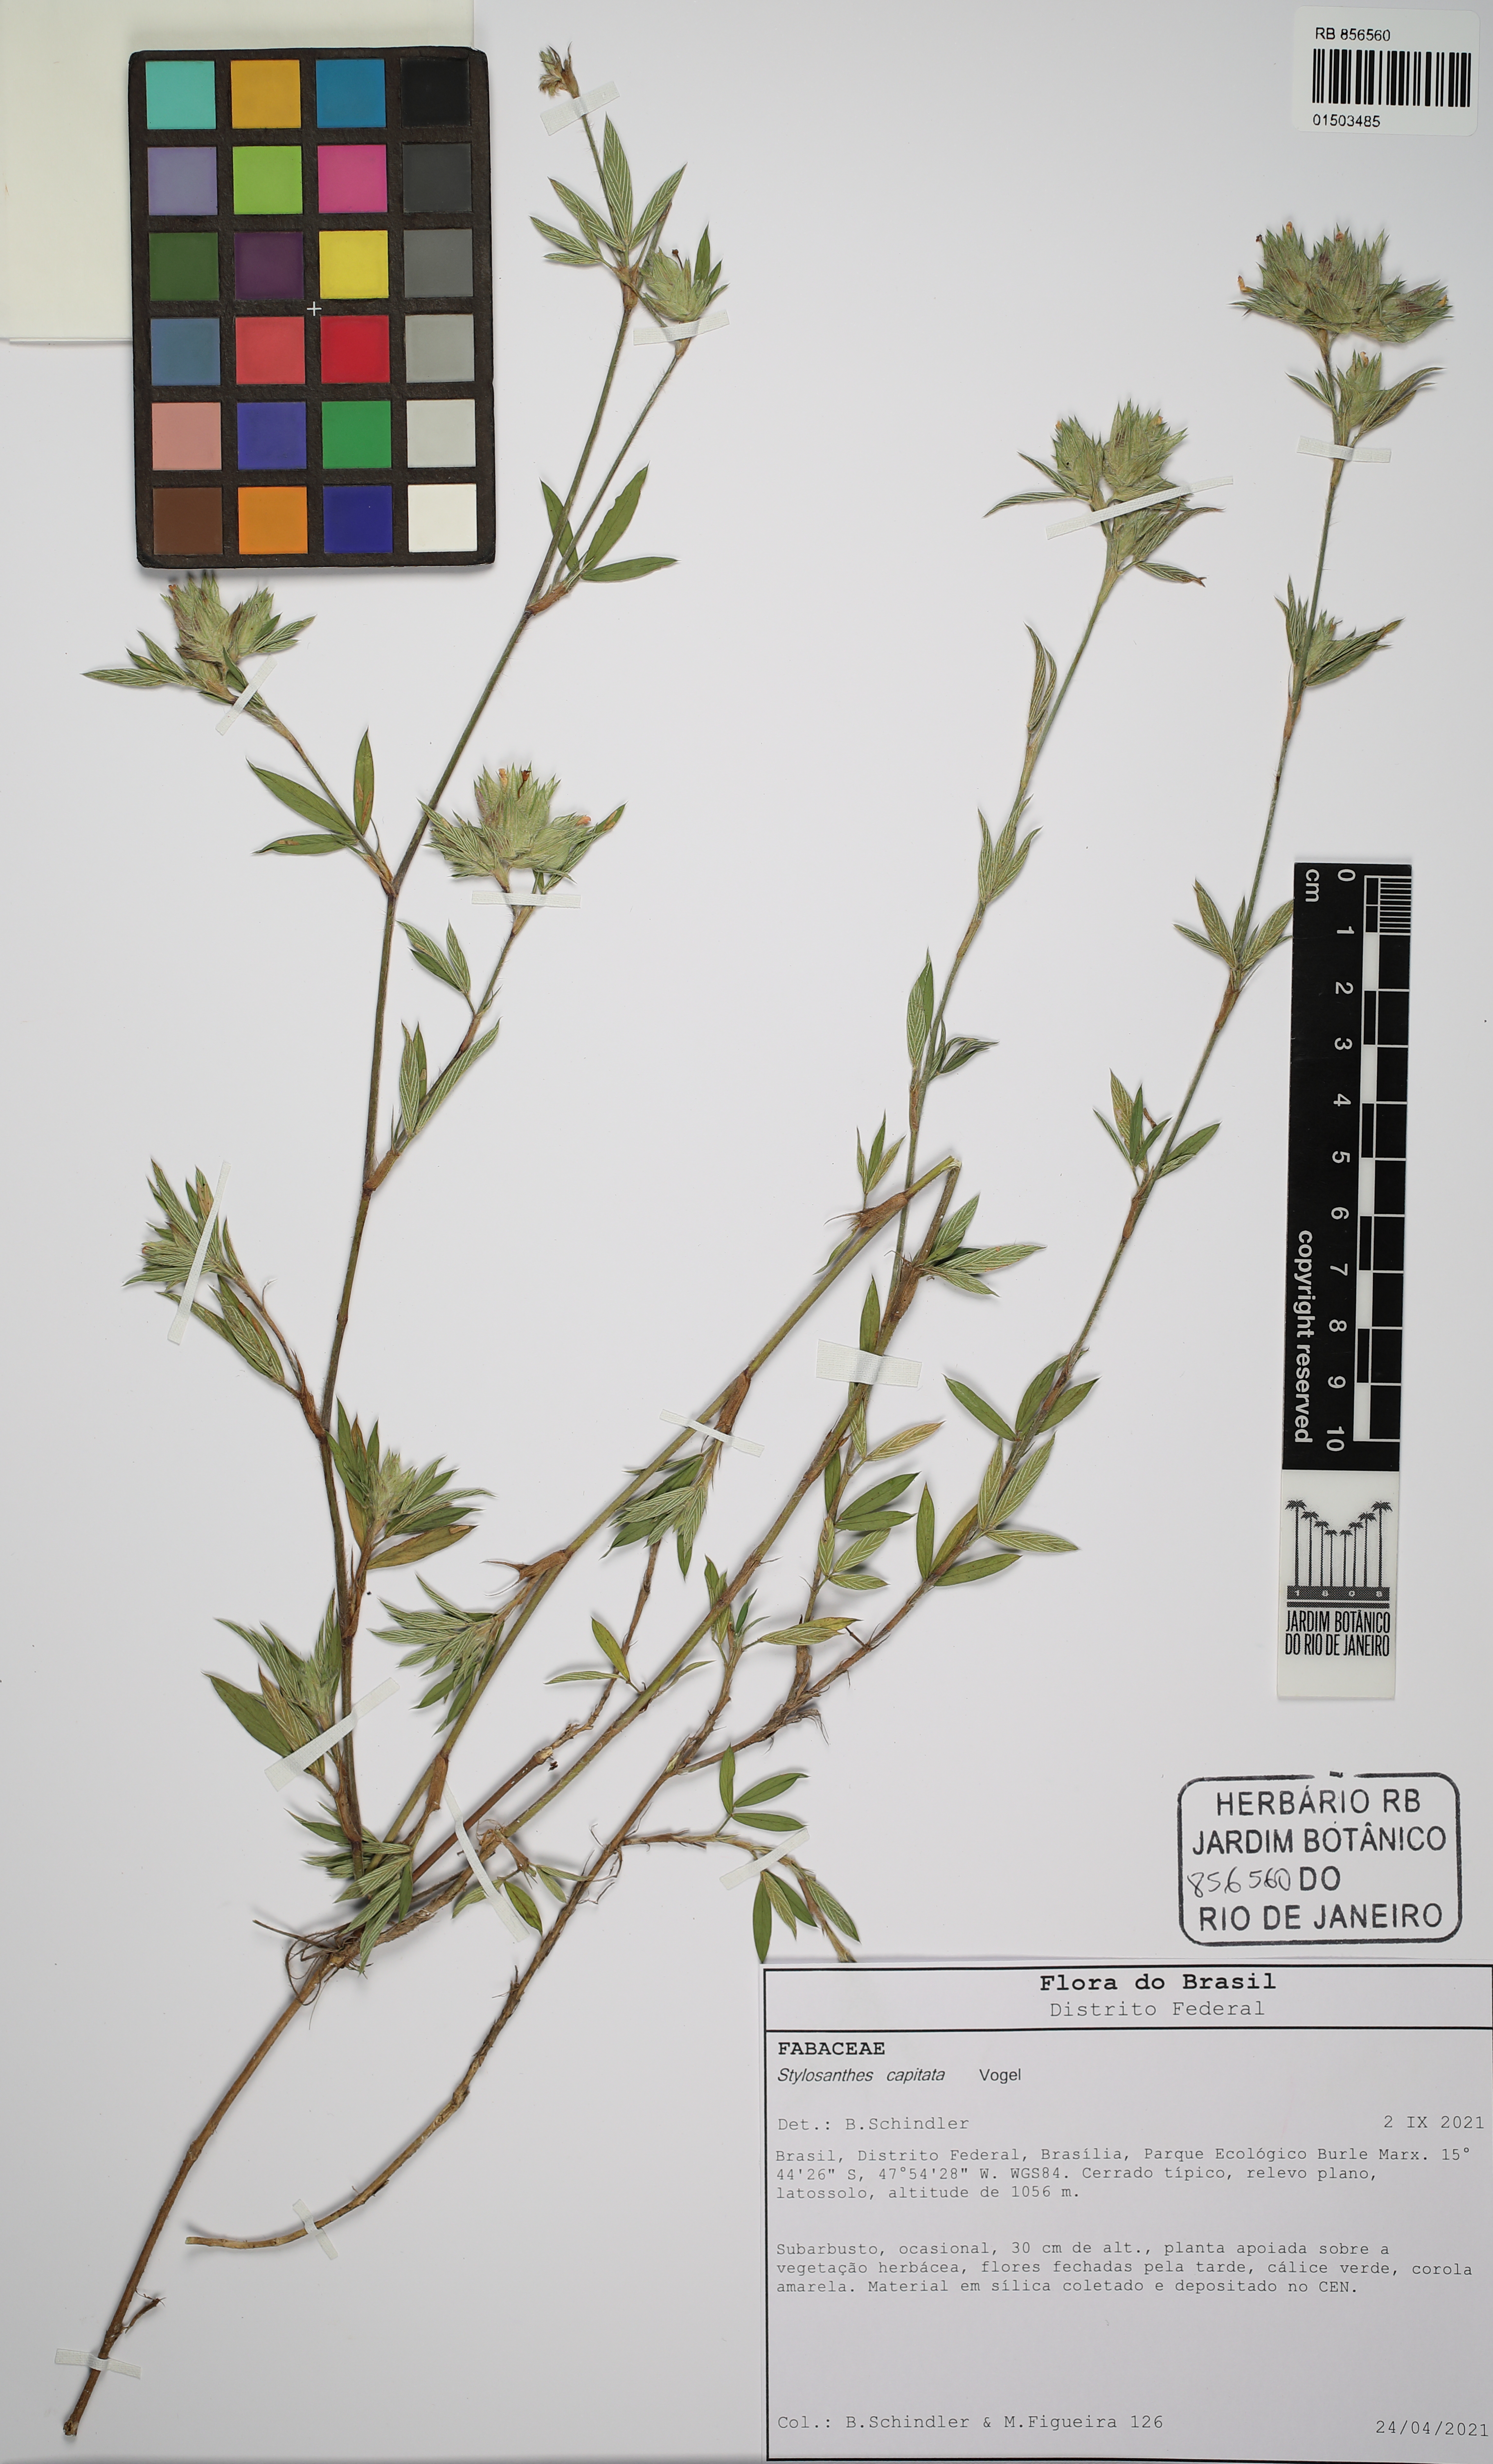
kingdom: Plantae
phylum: Tracheophyta
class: Magnoliopsida
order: Fabales
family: Fabaceae
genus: Stylosanthes
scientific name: Stylosanthes capitata
